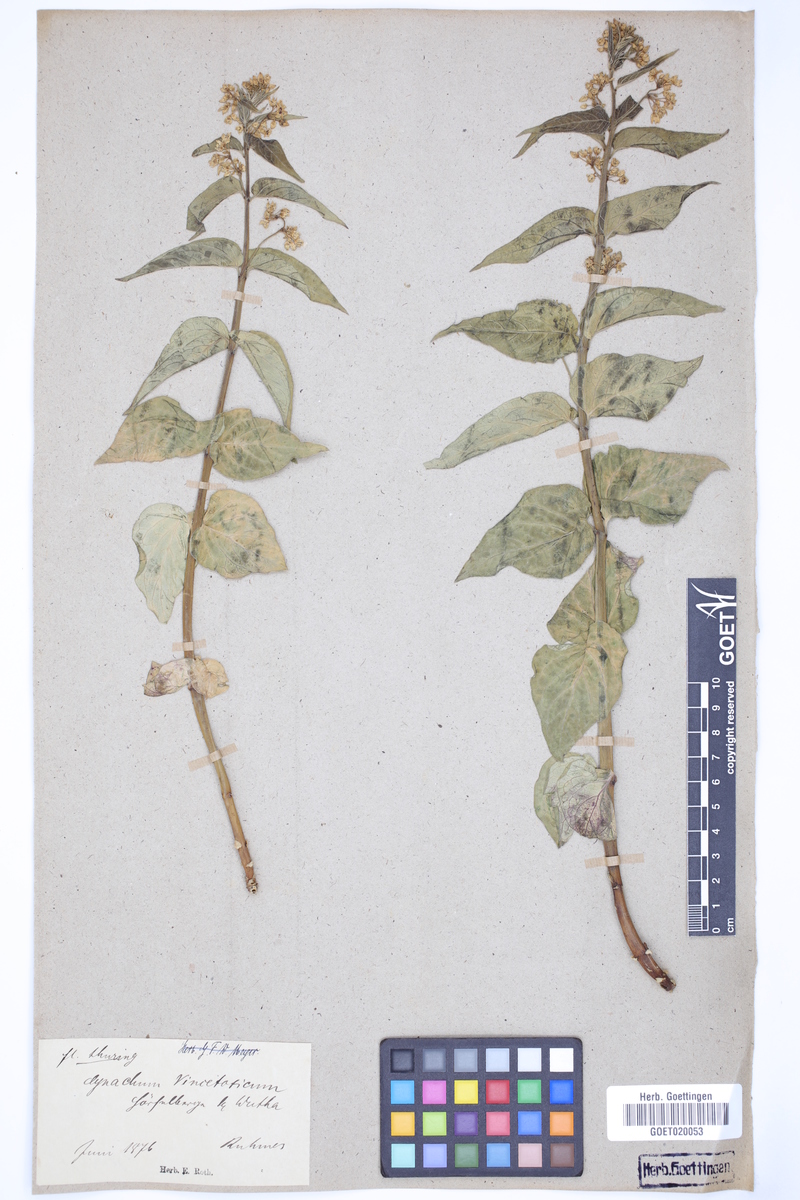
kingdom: Plantae
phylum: Tracheophyta
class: Magnoliopsida
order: Gentianales
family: Apocynaceae
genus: Vincetoxicum
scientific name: Vincetoxicum hirundinaria
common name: White swallowwort
